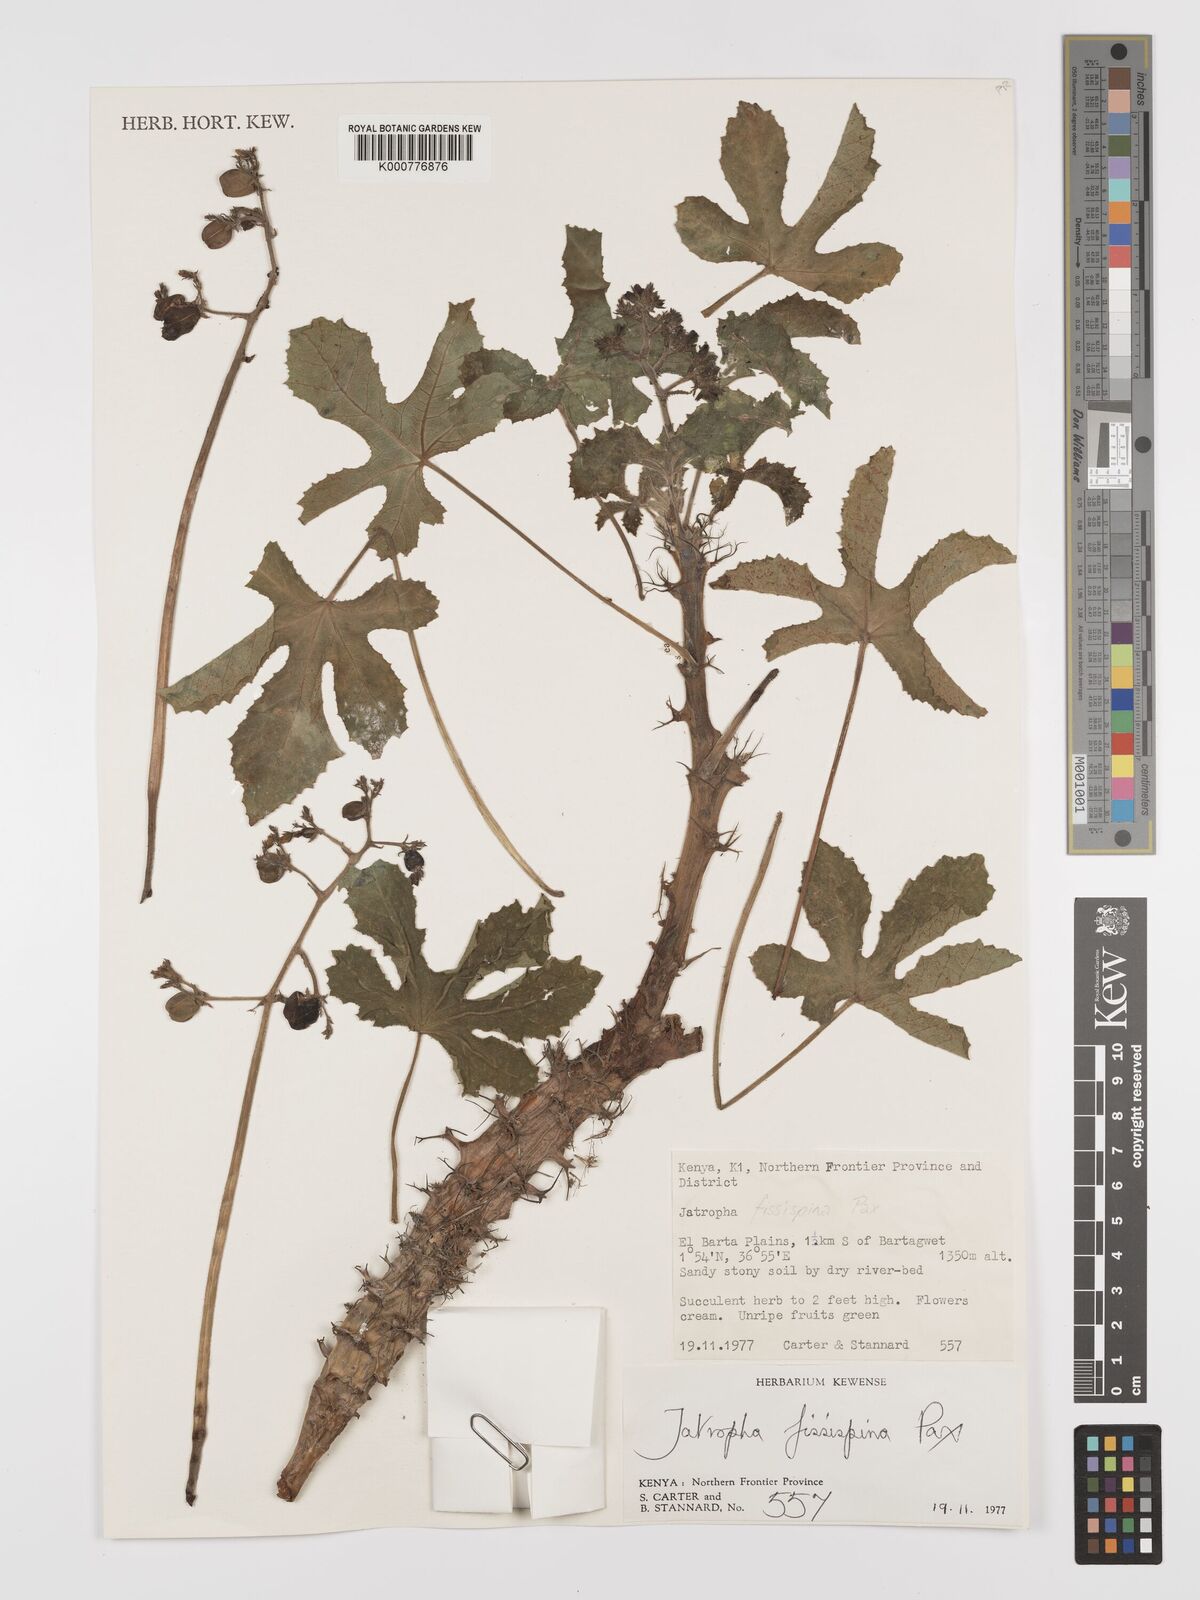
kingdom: Plantae
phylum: Tracheophyta
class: Magnoliopsida
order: Malpighiales
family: Euphorbiaceae
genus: Jatropha
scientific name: Jatropha ellenbeckii
